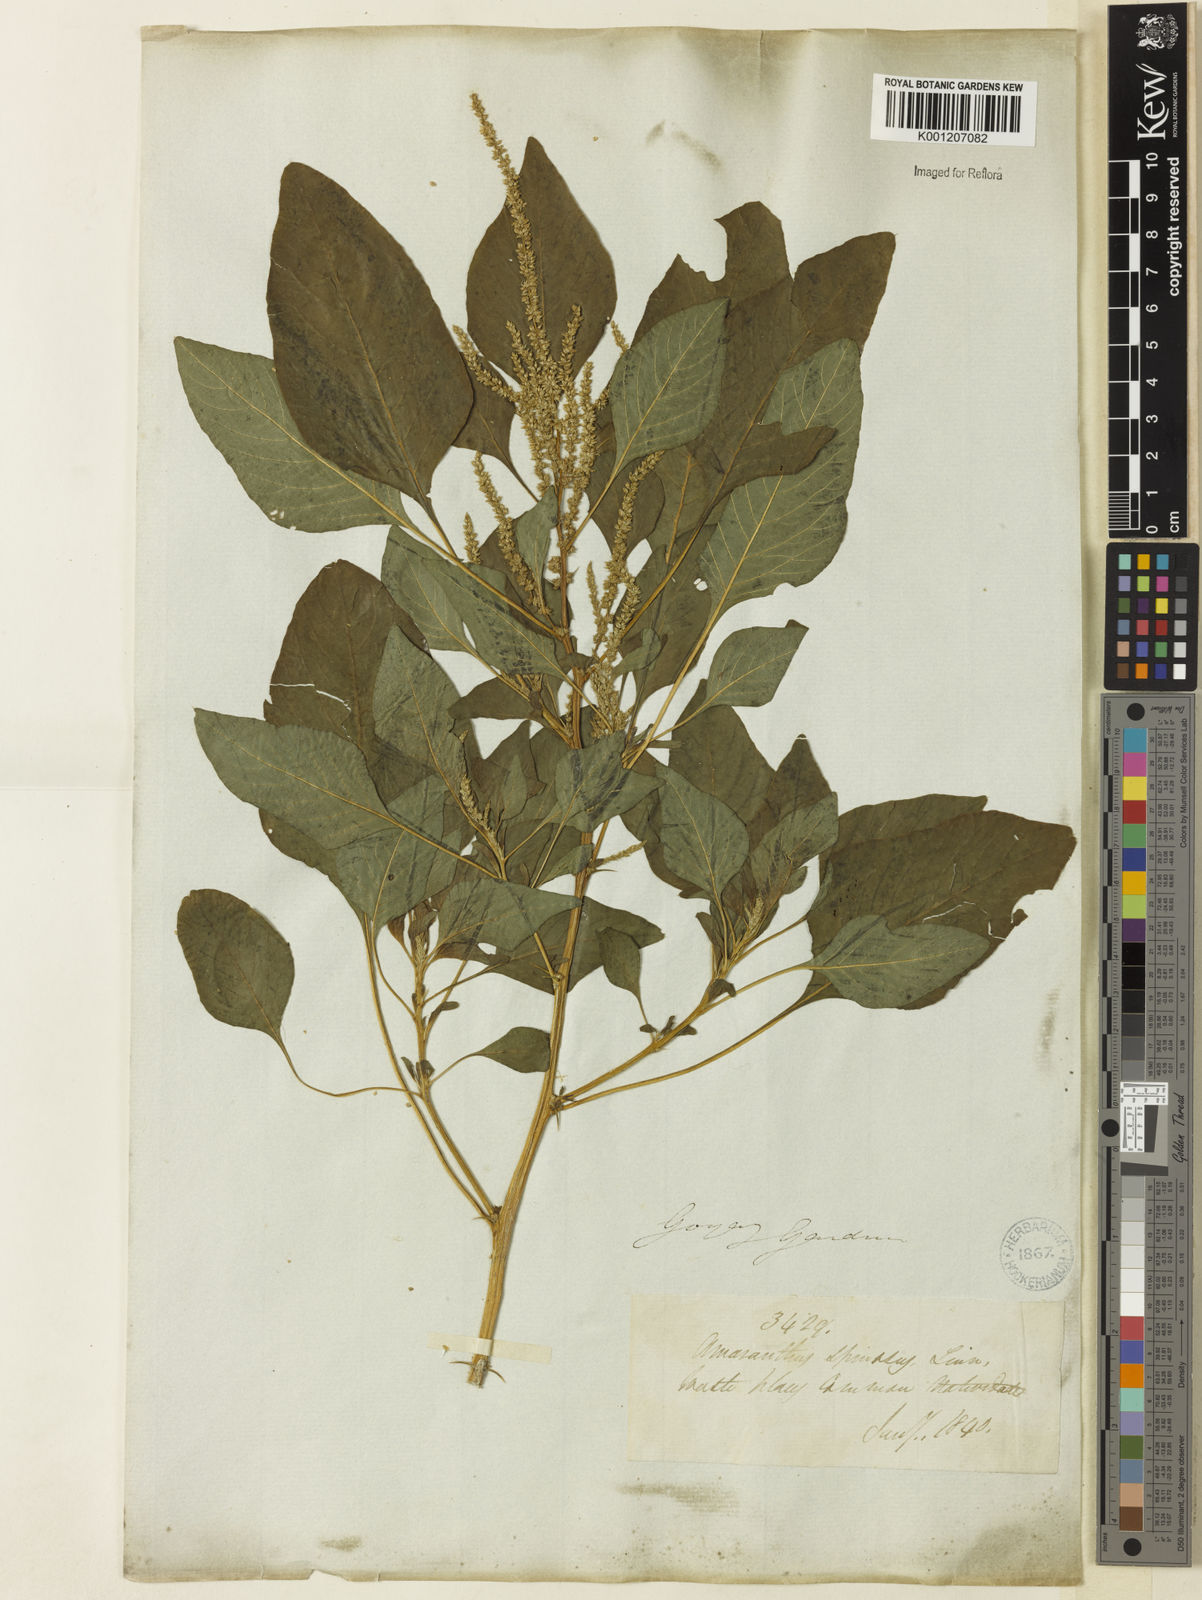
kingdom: Plantae
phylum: Tracheophyta
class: Magnoliopsida
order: Caryophyllales
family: Amaranthaceae
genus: Amaranthus
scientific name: Amaranthus spinosus
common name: Spiny amaranth
